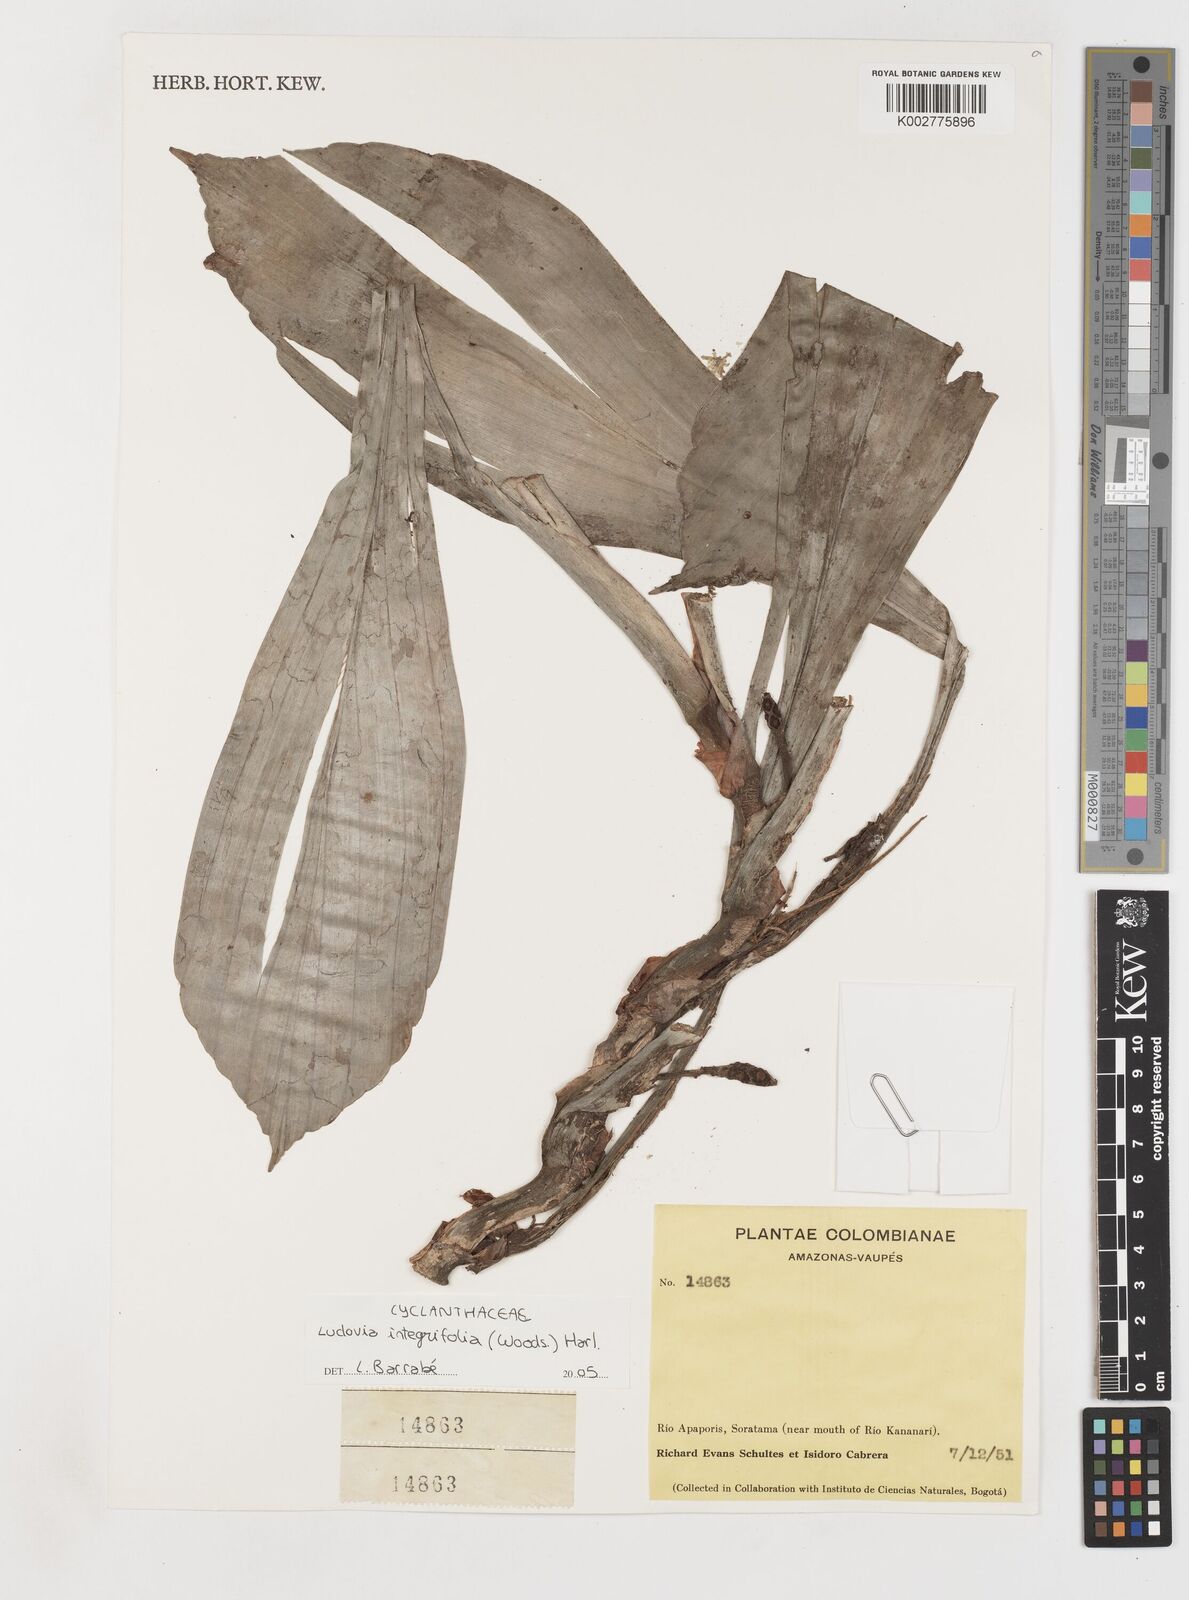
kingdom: Plantae
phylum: Tracheophyta
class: Liliopsida
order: Pandanales
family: Cyclanthaceae
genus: Ludovia
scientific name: Ludovia integrifolia
